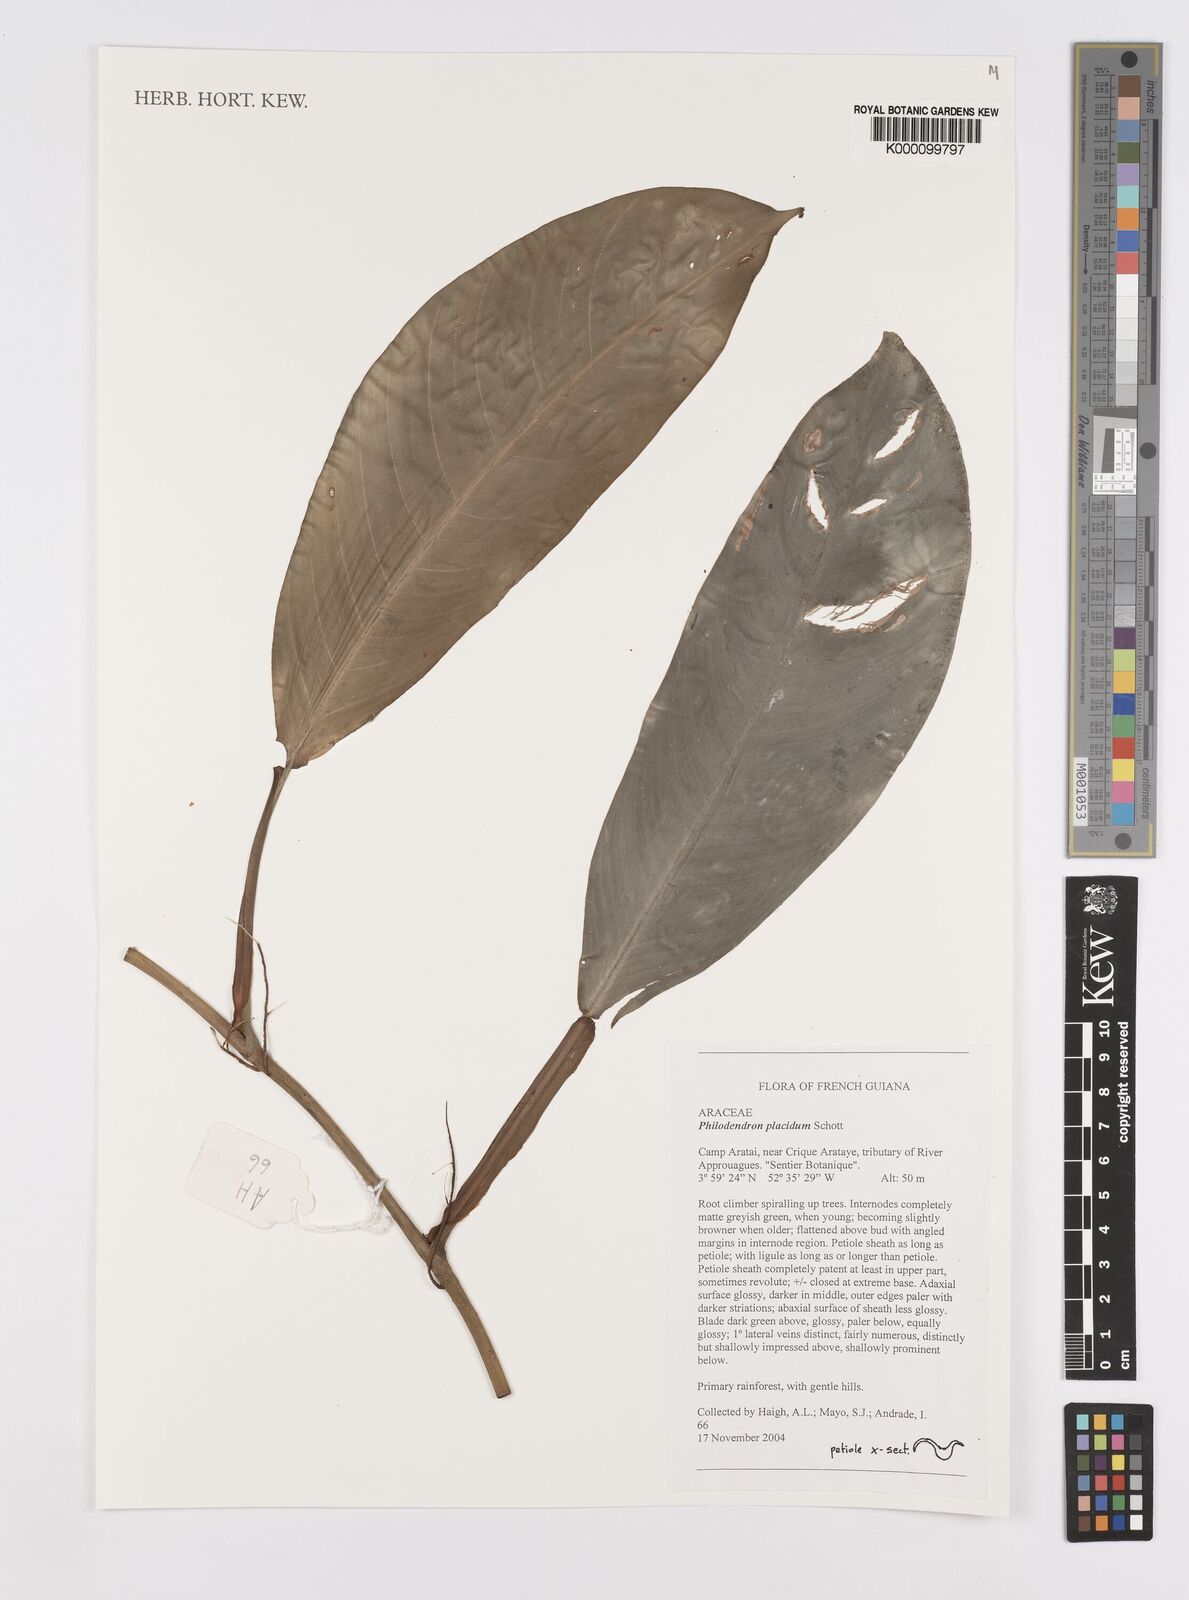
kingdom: Plantae
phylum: Tracheophyta
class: Liliopsida
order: Alismatales
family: Araceae
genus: Philodendron
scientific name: Philodendron placidum
